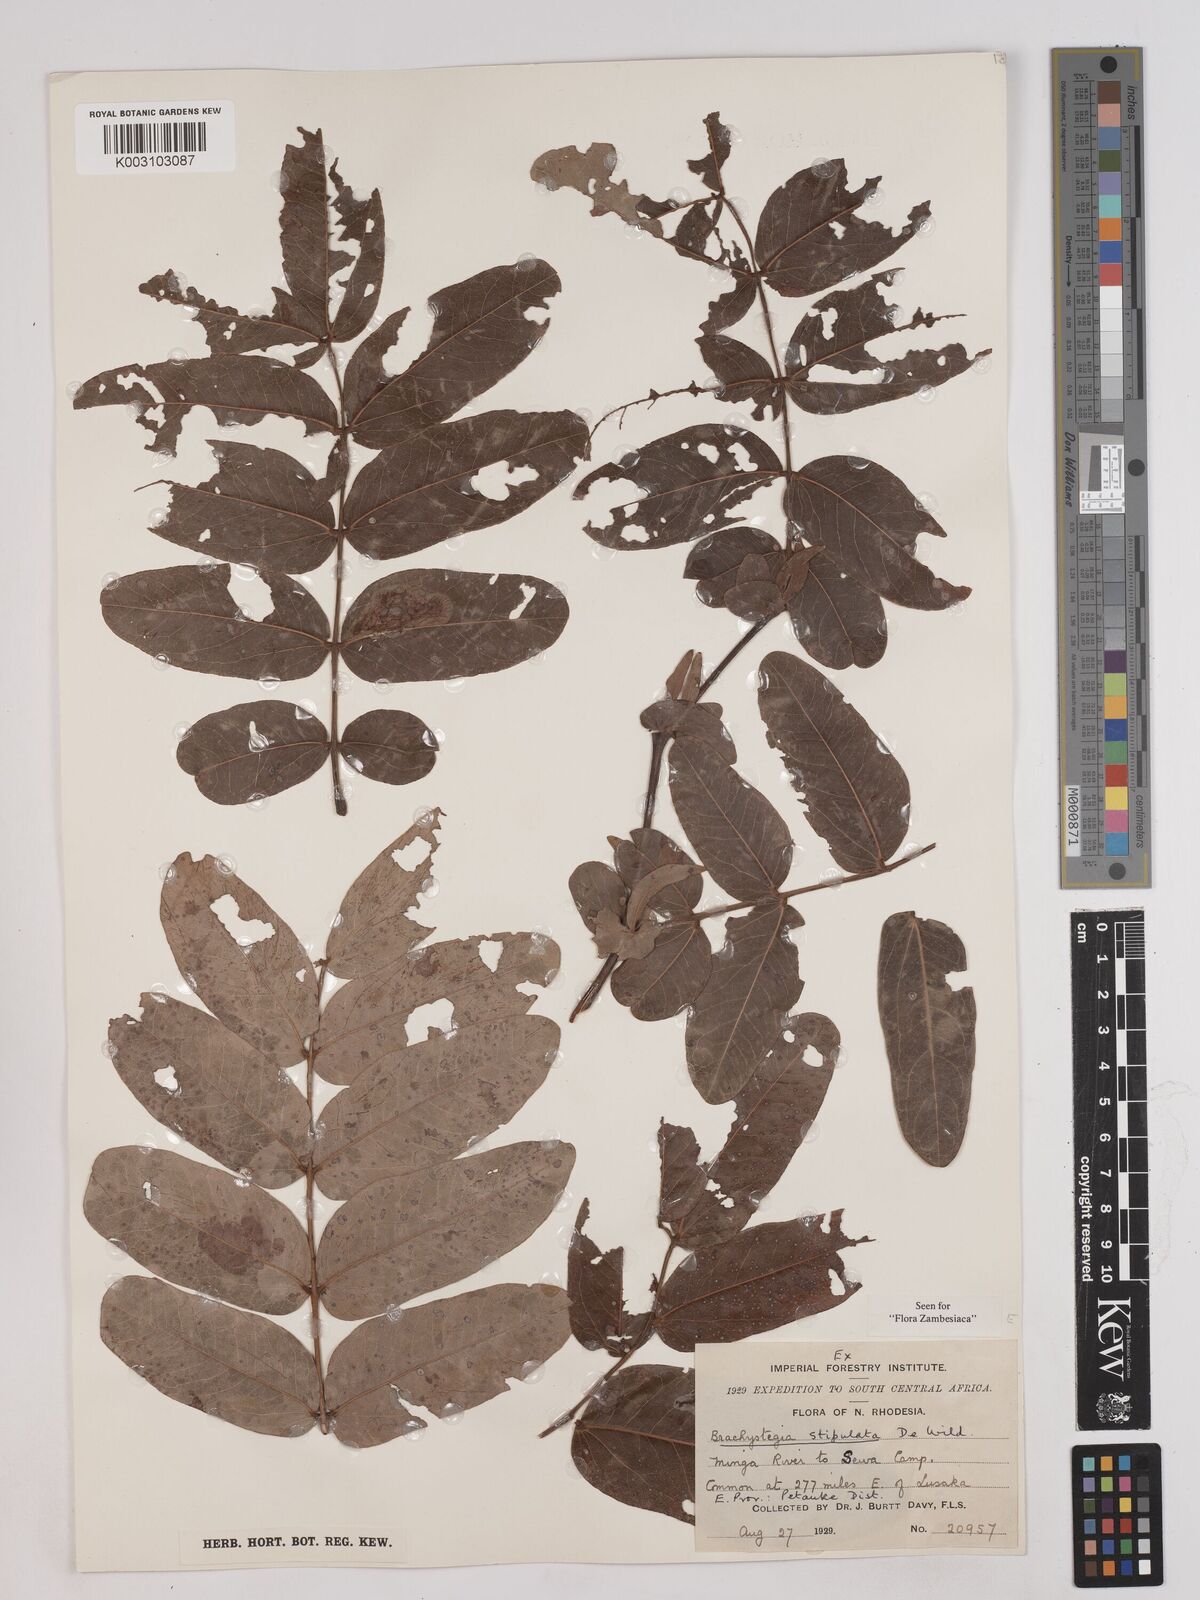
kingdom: Plantae
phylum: Tracheophyta
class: Magnoliopsida
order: Fabales
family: Fabaceae
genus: Brachystegia
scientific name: Brachystegia stipulata
